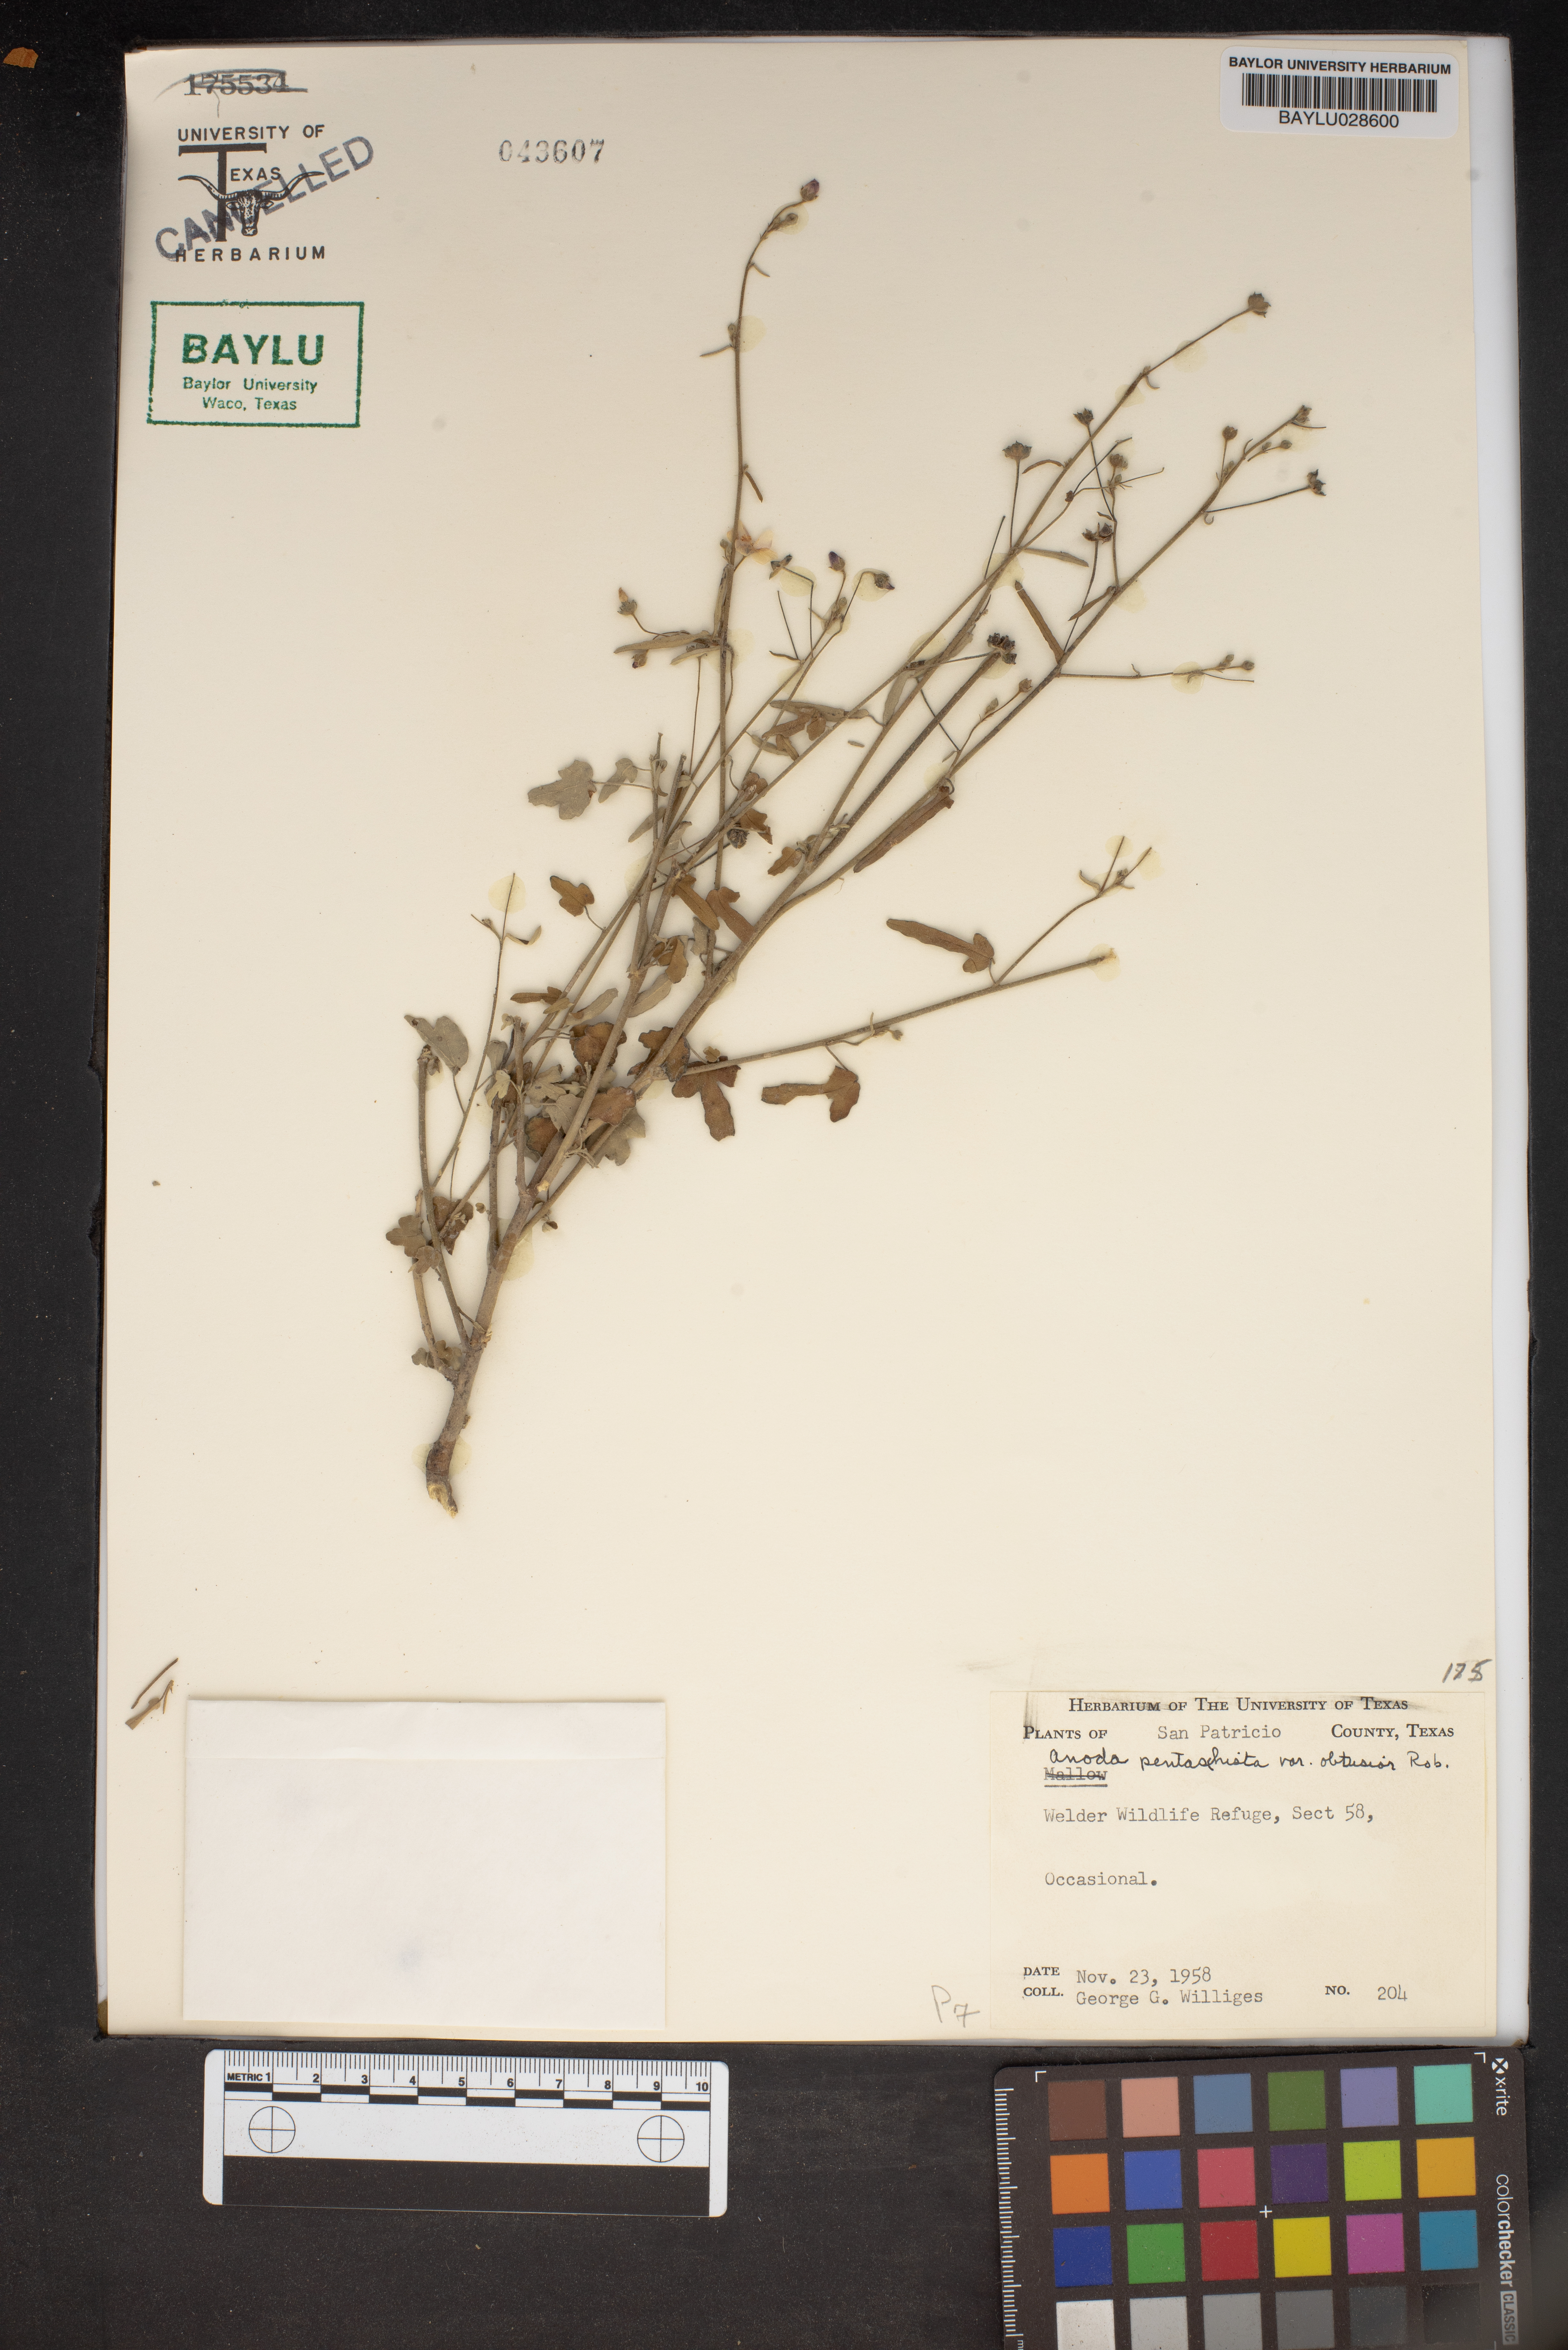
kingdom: Plantae
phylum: Tracheophyta
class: Magnoliopsida
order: Malvales
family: Malvaceae
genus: Anoda
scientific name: Anoda pentaschista
